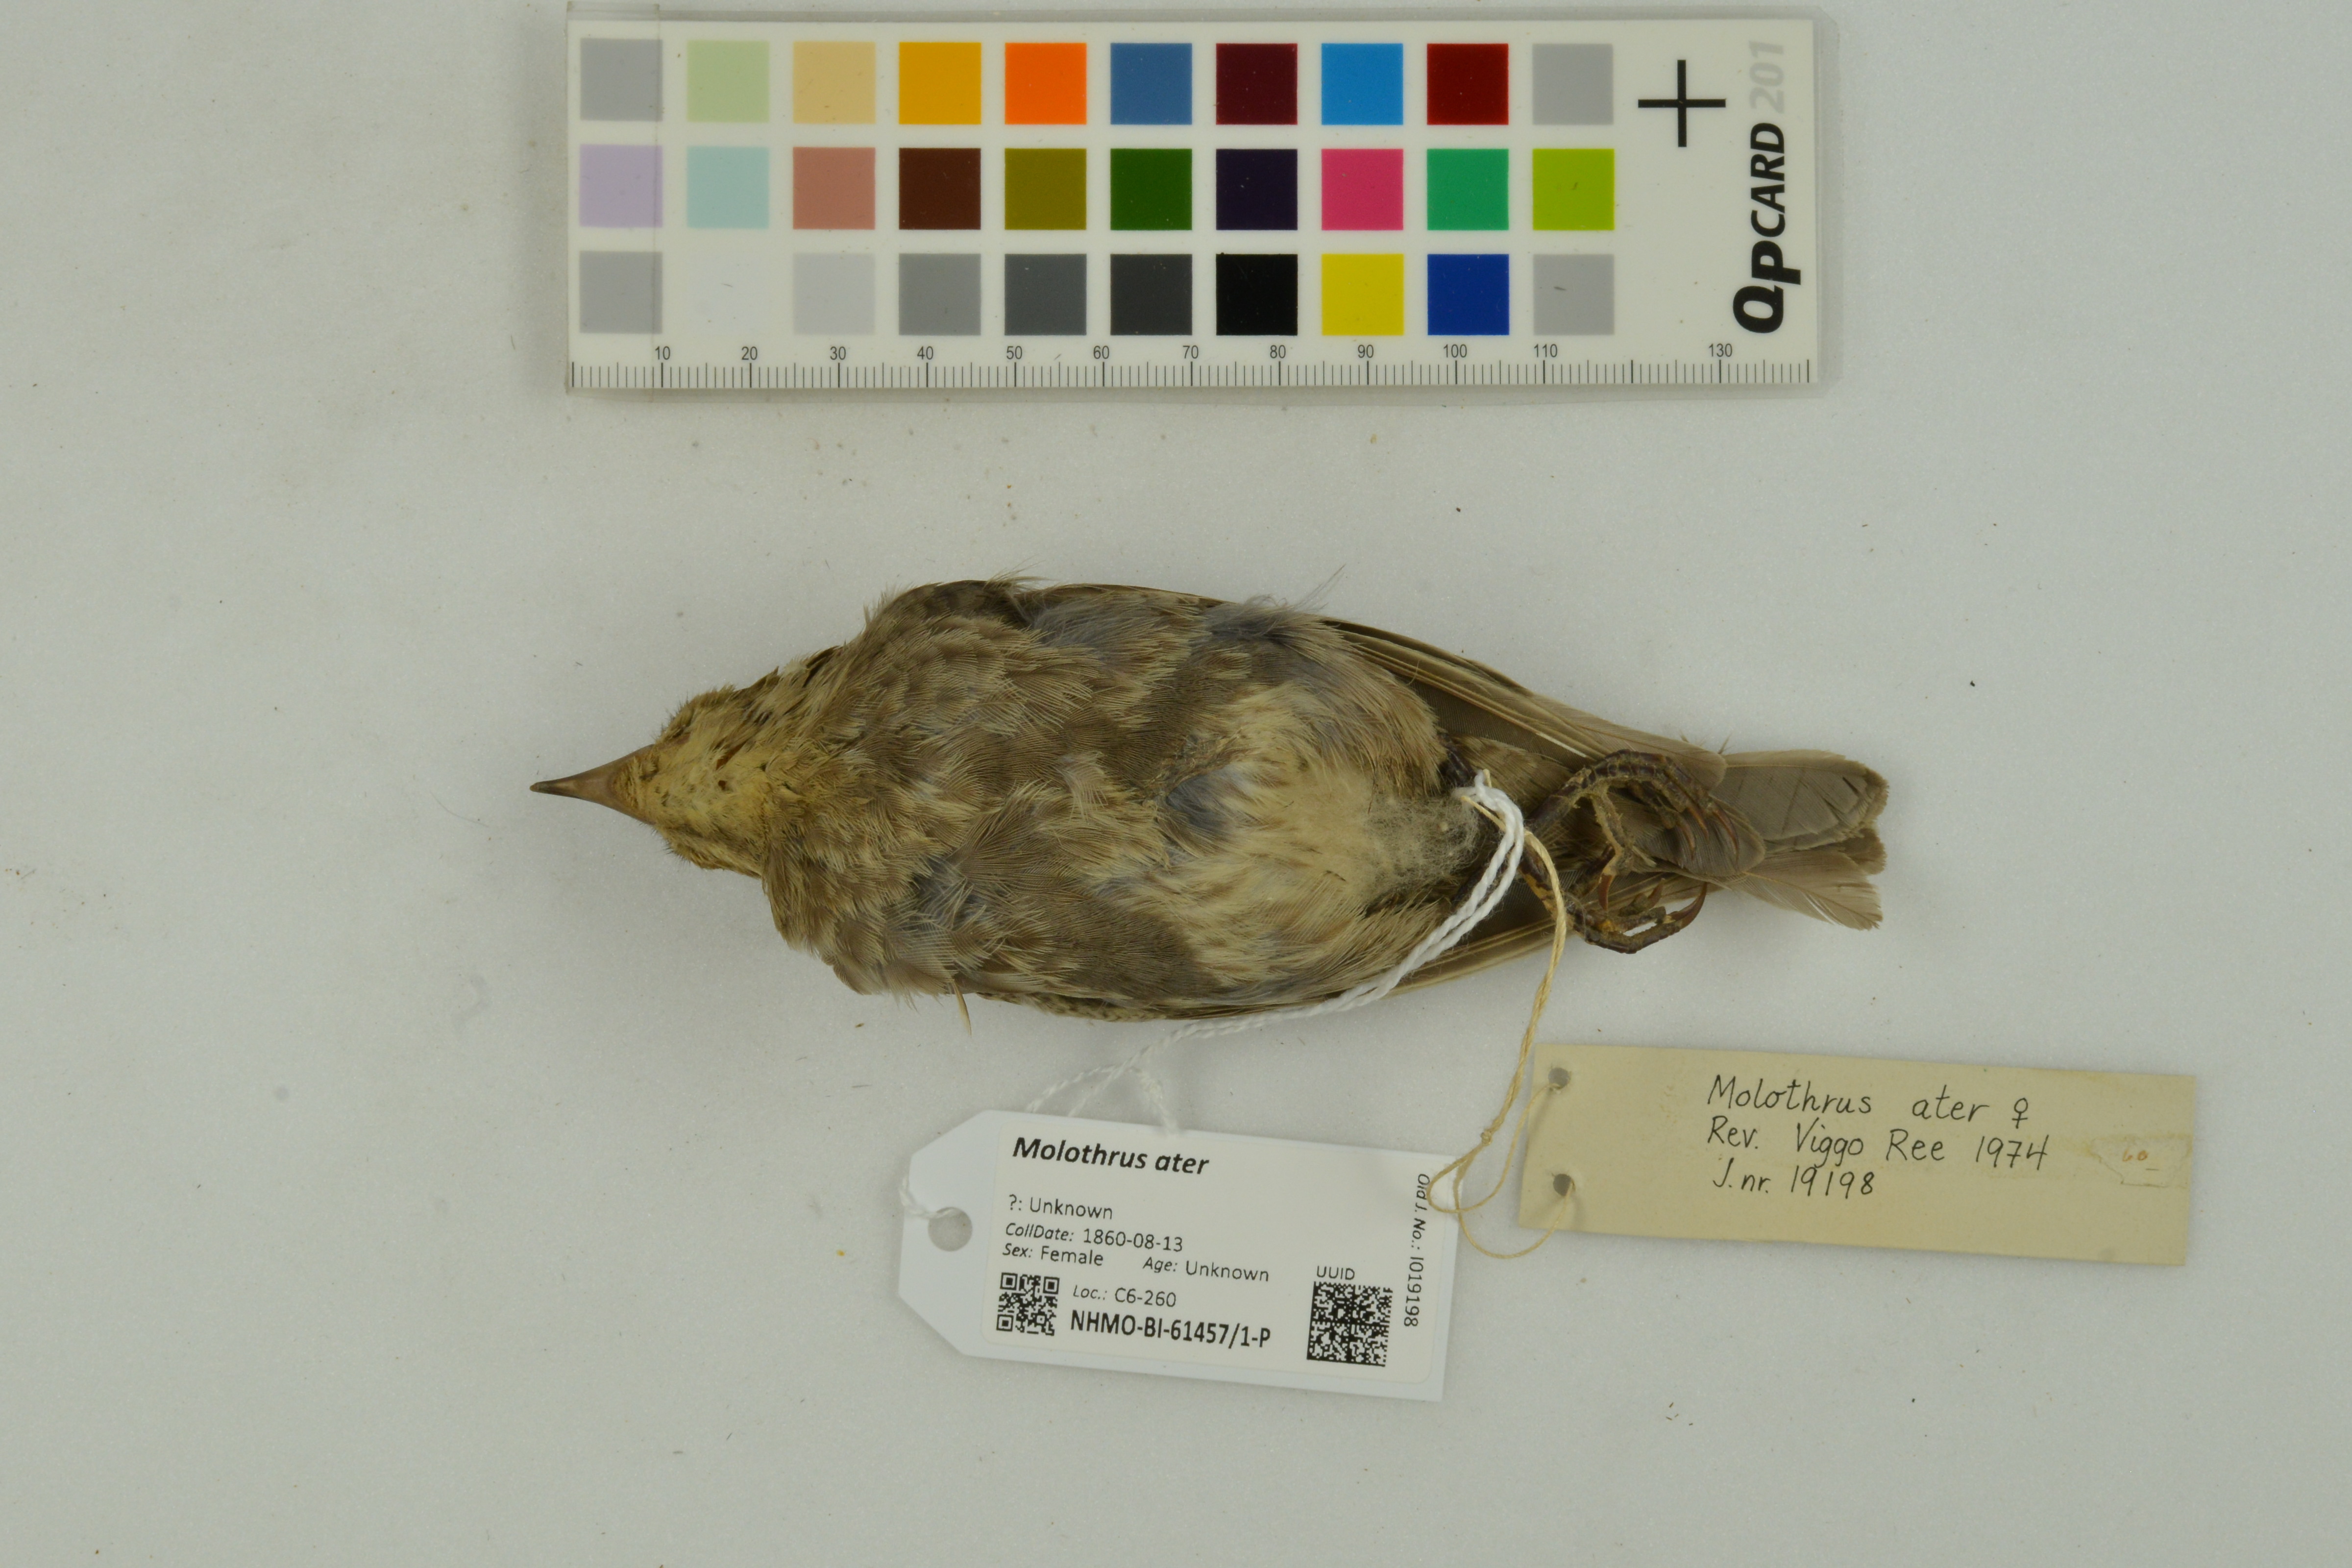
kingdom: Animalia
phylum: Chordata
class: Aves
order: Passeriformes
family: Icteridae
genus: Molothrus
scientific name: Molothrus ater
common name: Brown-headed cowbird
